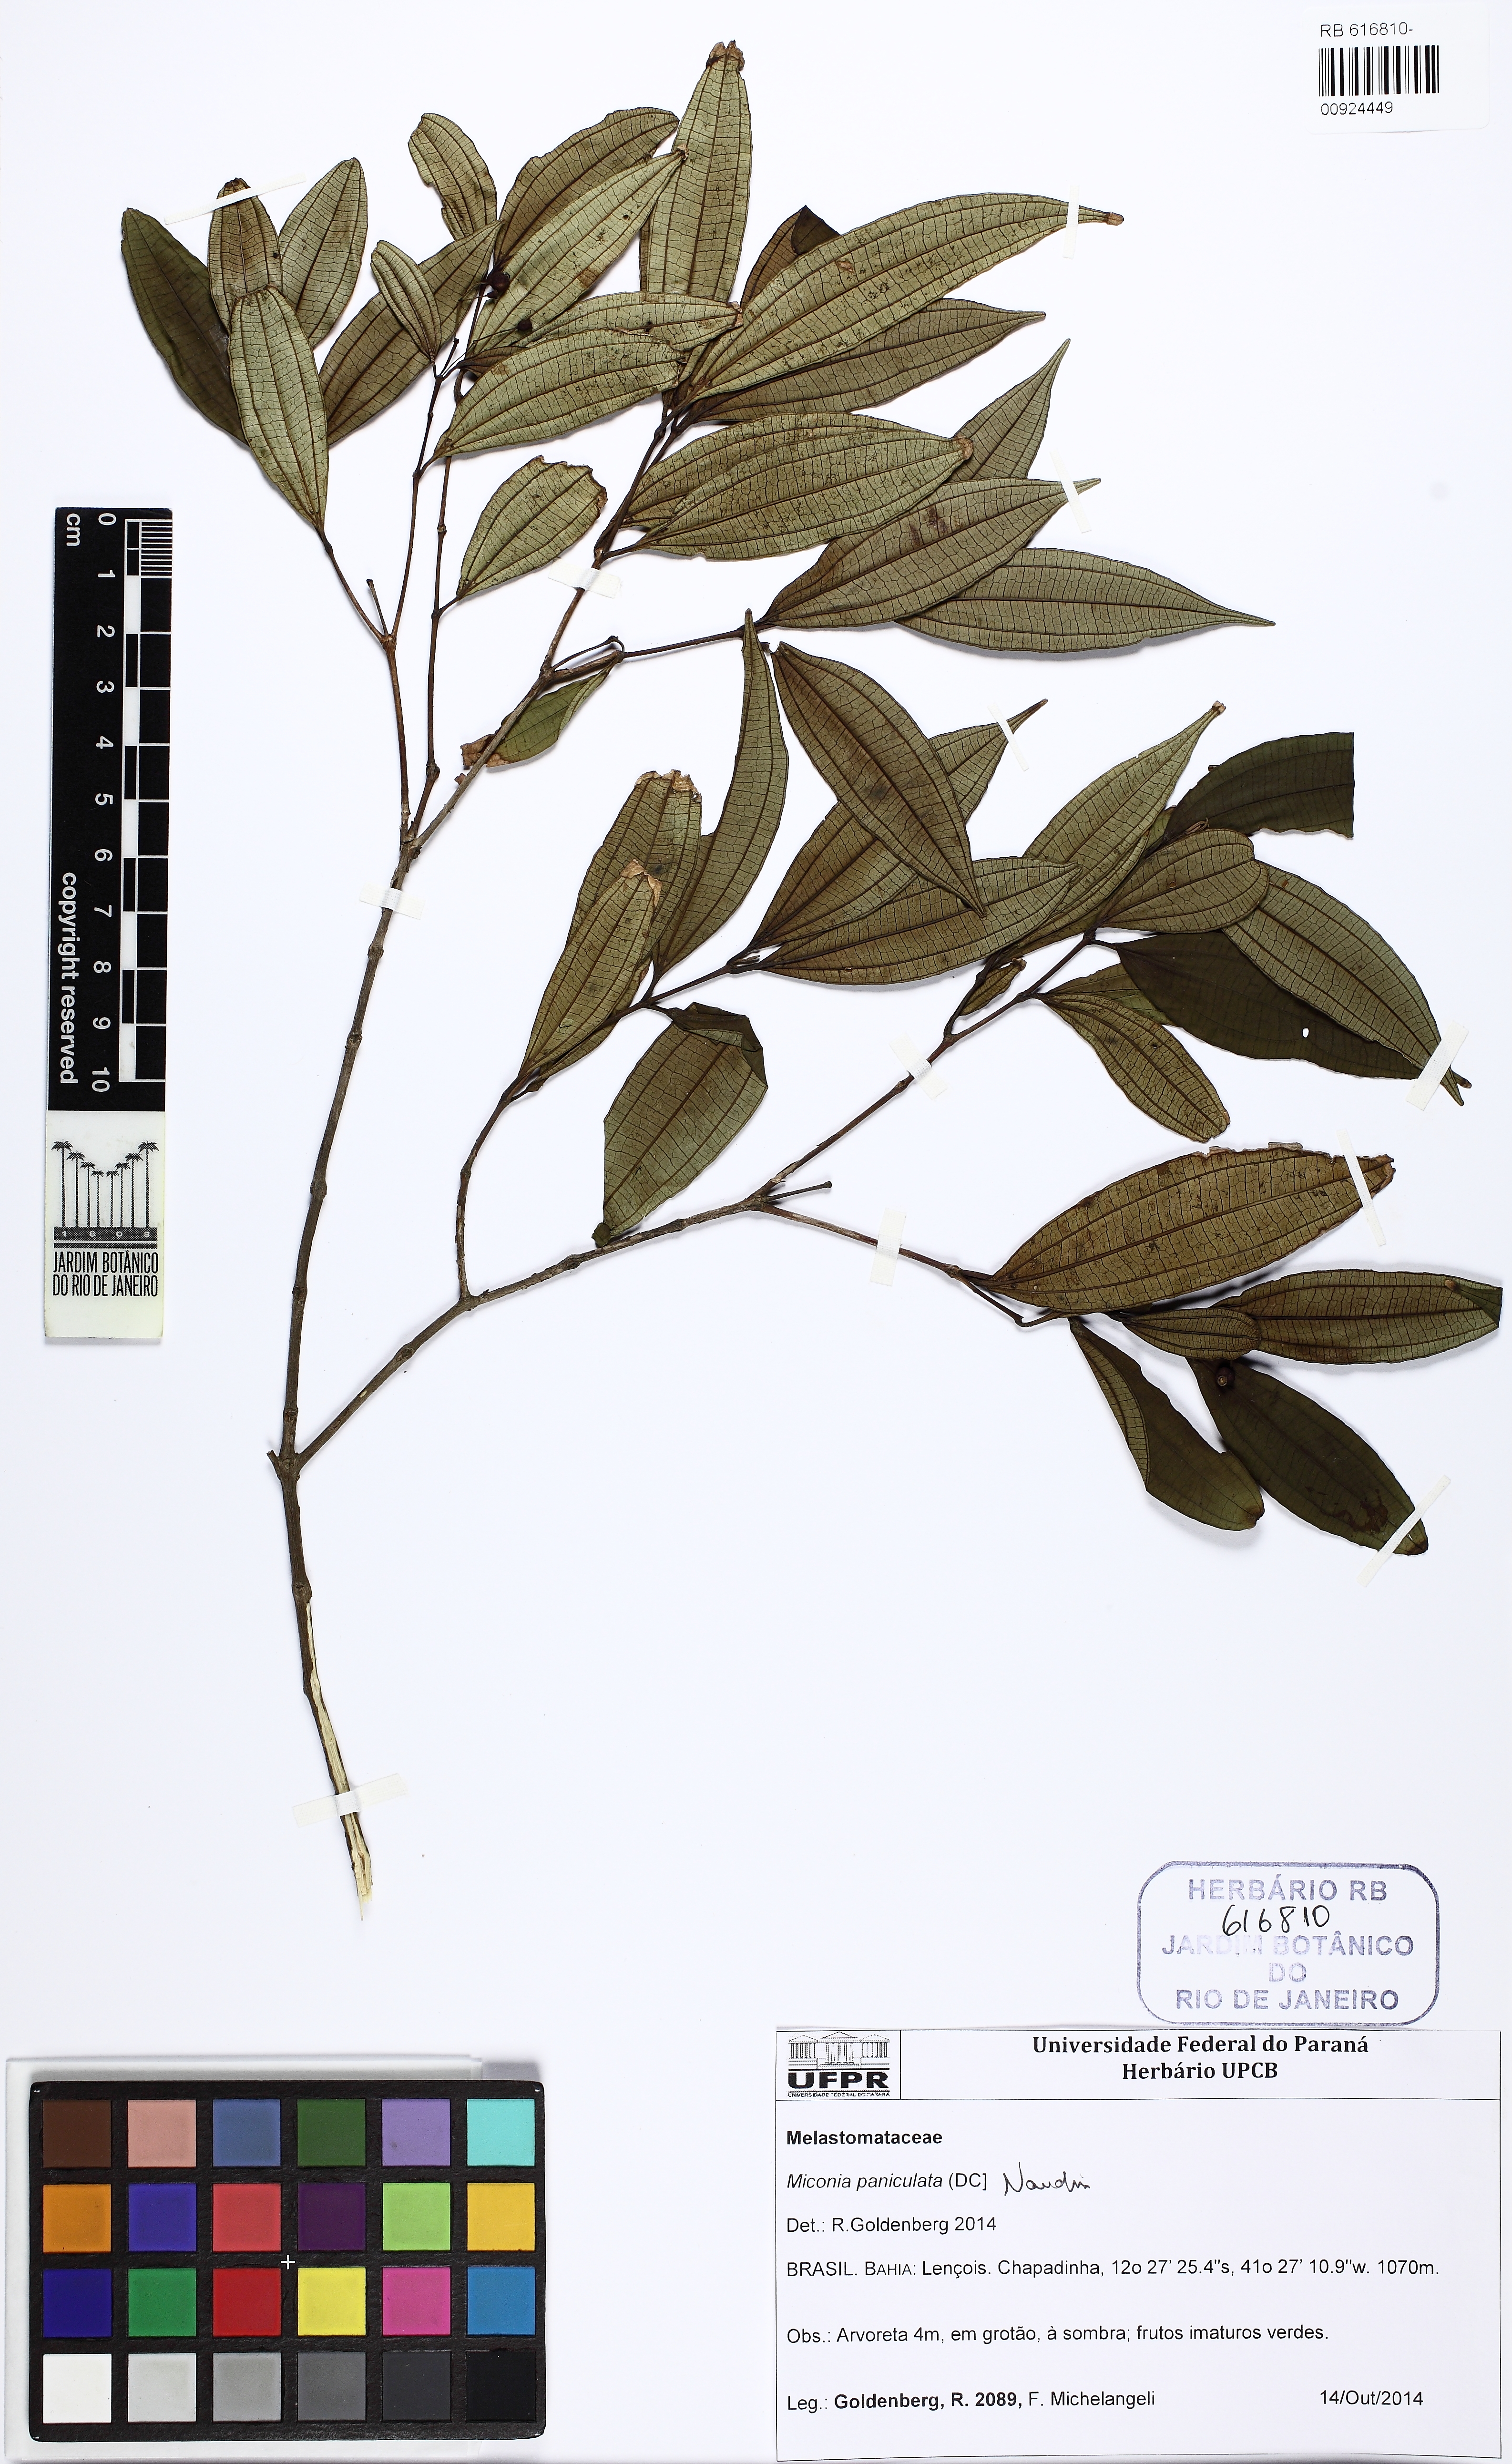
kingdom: Plantae
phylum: Tracheophyta
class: Magnoliopsida
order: Myrtales
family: Melastomataceae
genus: Miconia
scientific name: Miconia paniculata
